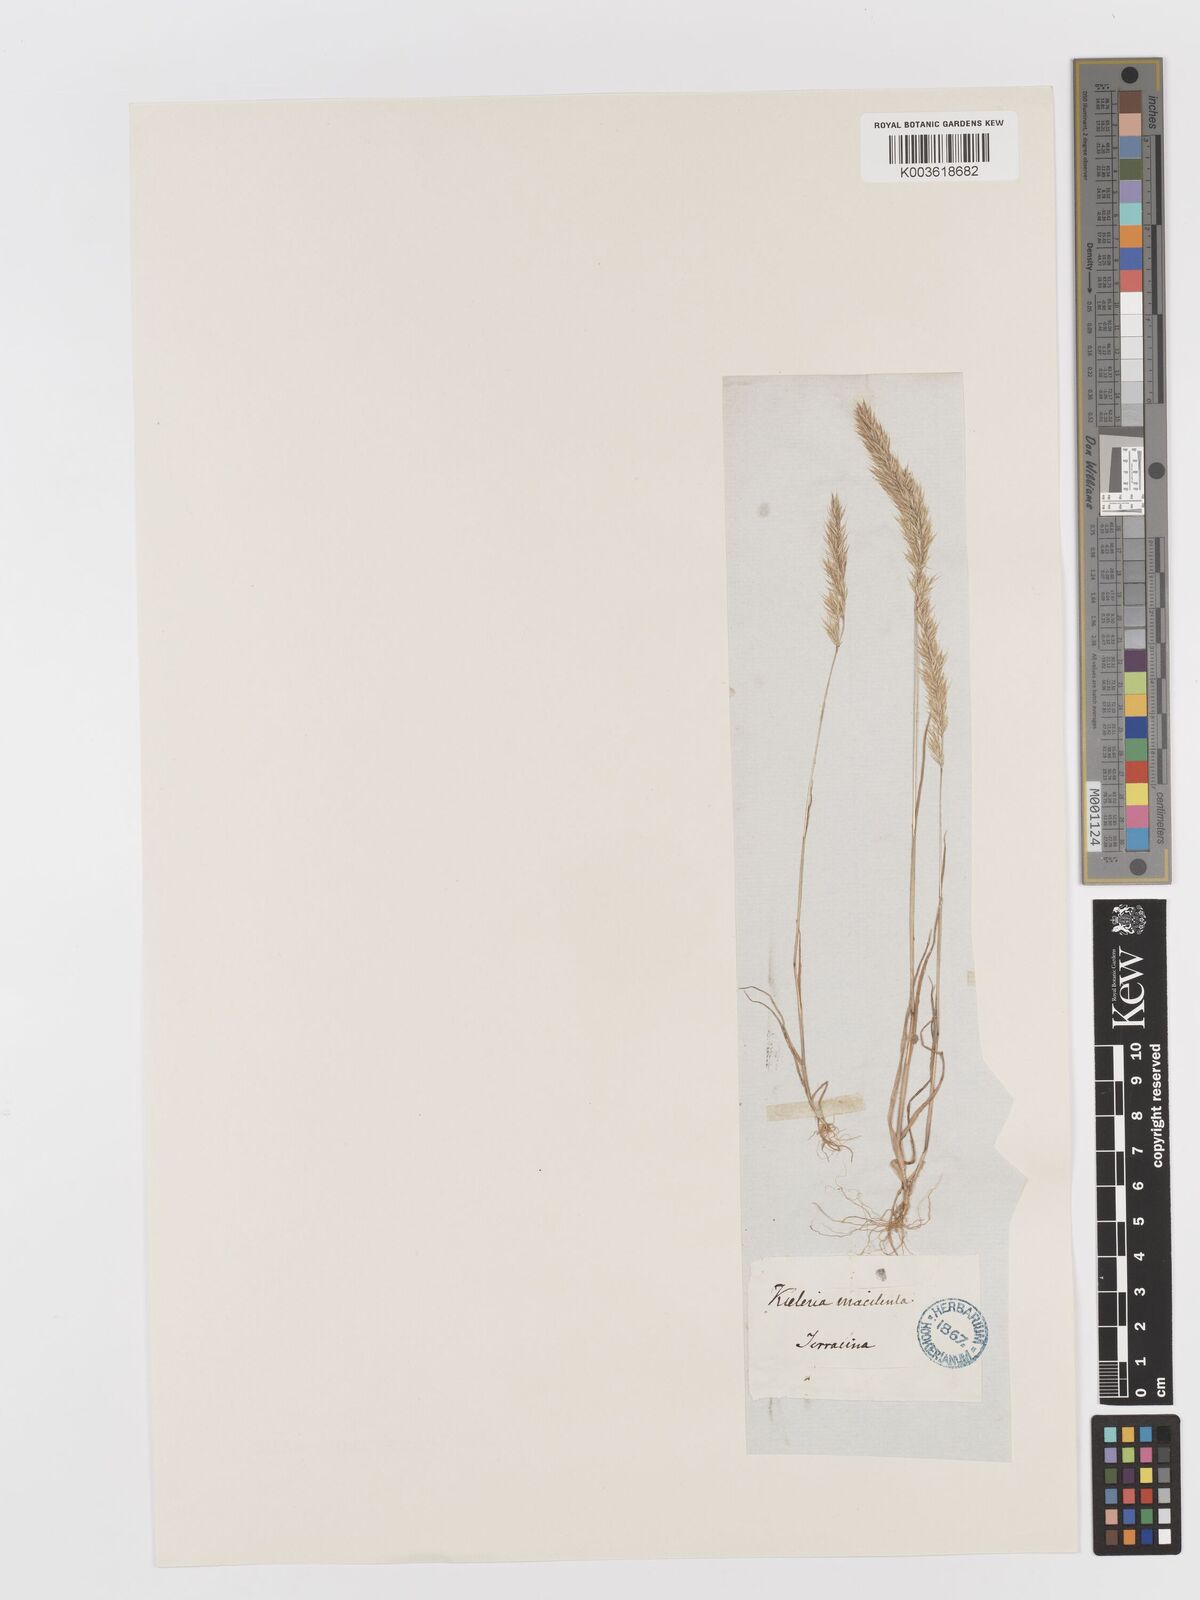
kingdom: Plantae
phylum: Tracheophyta
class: Liliopsida
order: Poales
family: Poaceae
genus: Avellinia
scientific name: Avellinia festucoides
